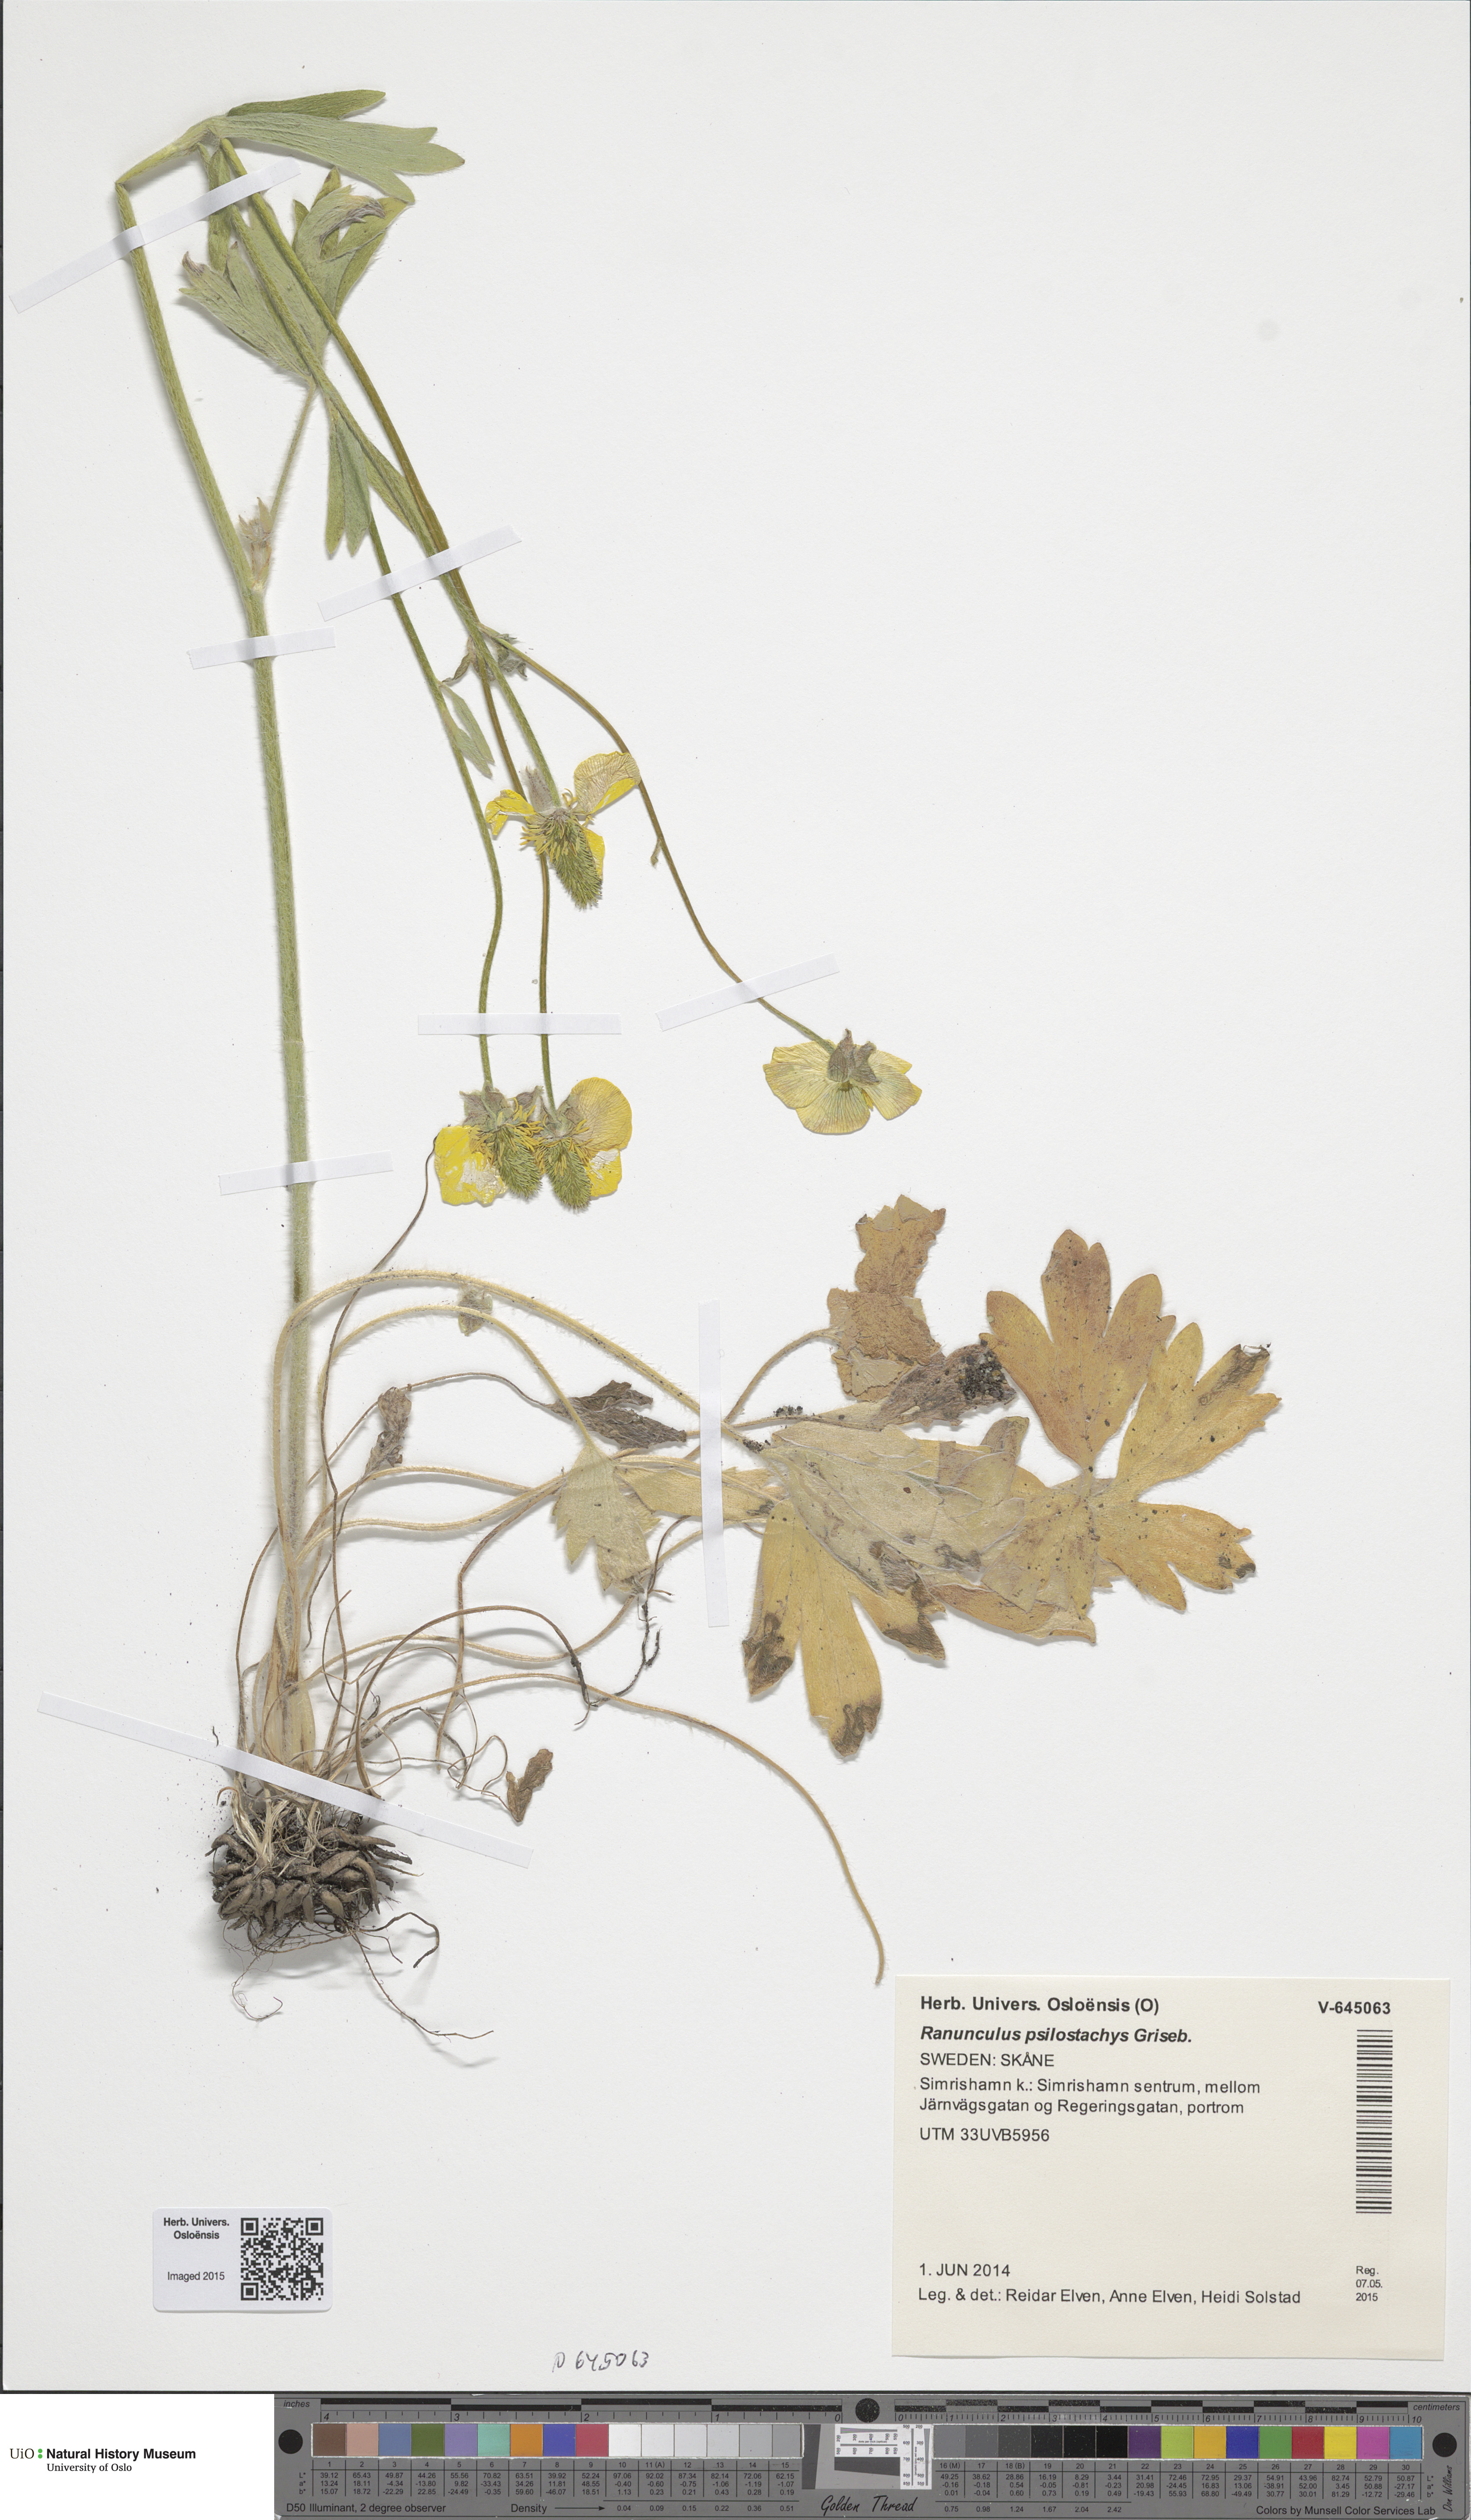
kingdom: Plantae
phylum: Tracheophyta
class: Magnoliopsida
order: Ranunculales
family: Ranunculaceae
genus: Ranunculus
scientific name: Ranunculus psilostachys
